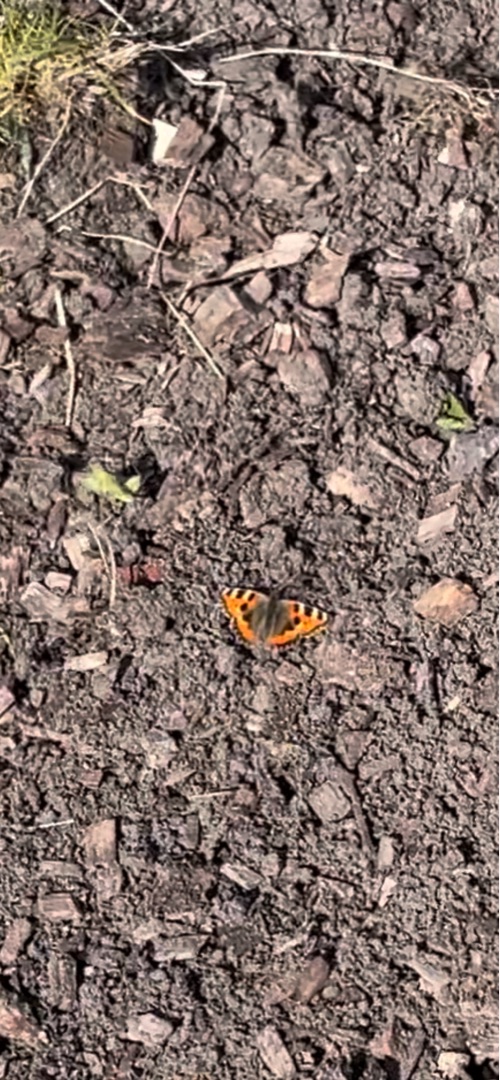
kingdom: Animalia
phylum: Arthropoda
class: Insecta
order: Lepidoptera
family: Nymphalidae
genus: Aglais
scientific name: Aglais urticae
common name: Nældens takvinge
